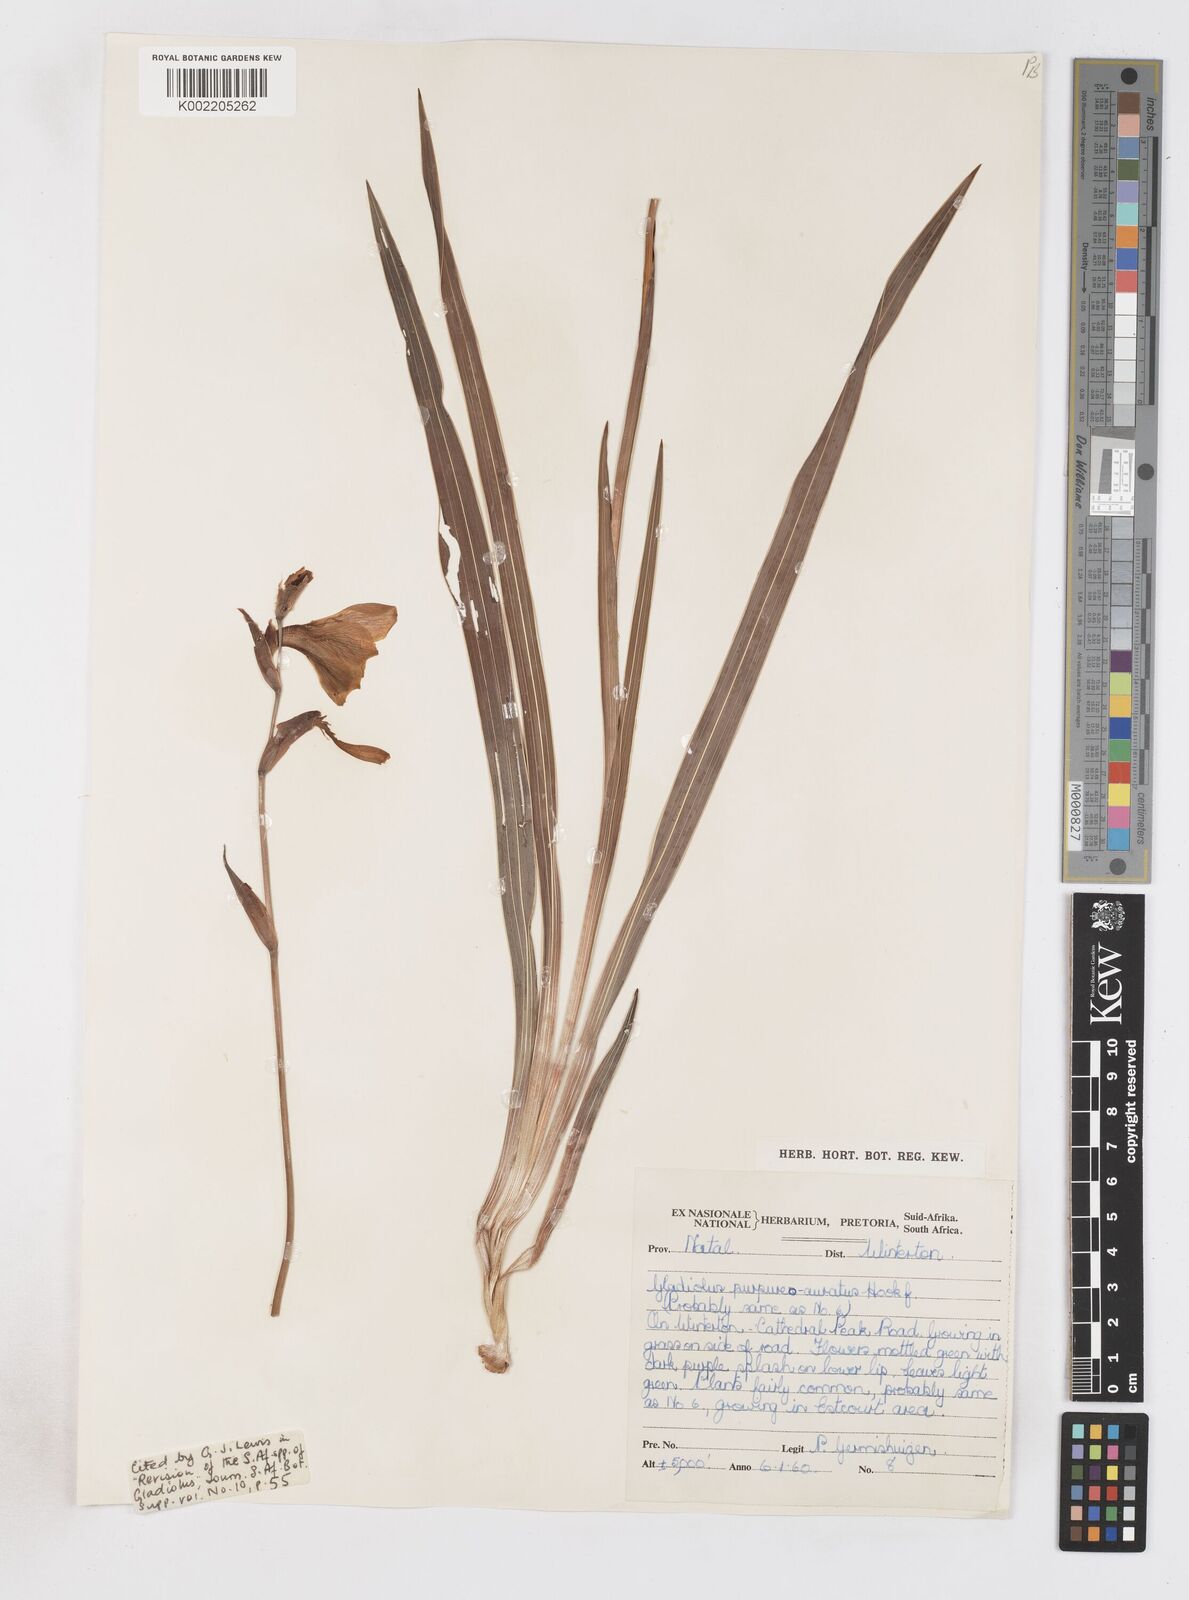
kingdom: Plantae
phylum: Tracheophyta
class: Liliopsida
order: Asparagales
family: Iridaceae
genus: Gladiolus
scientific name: Gladiolus papilio
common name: Goldblotch gladiolus
